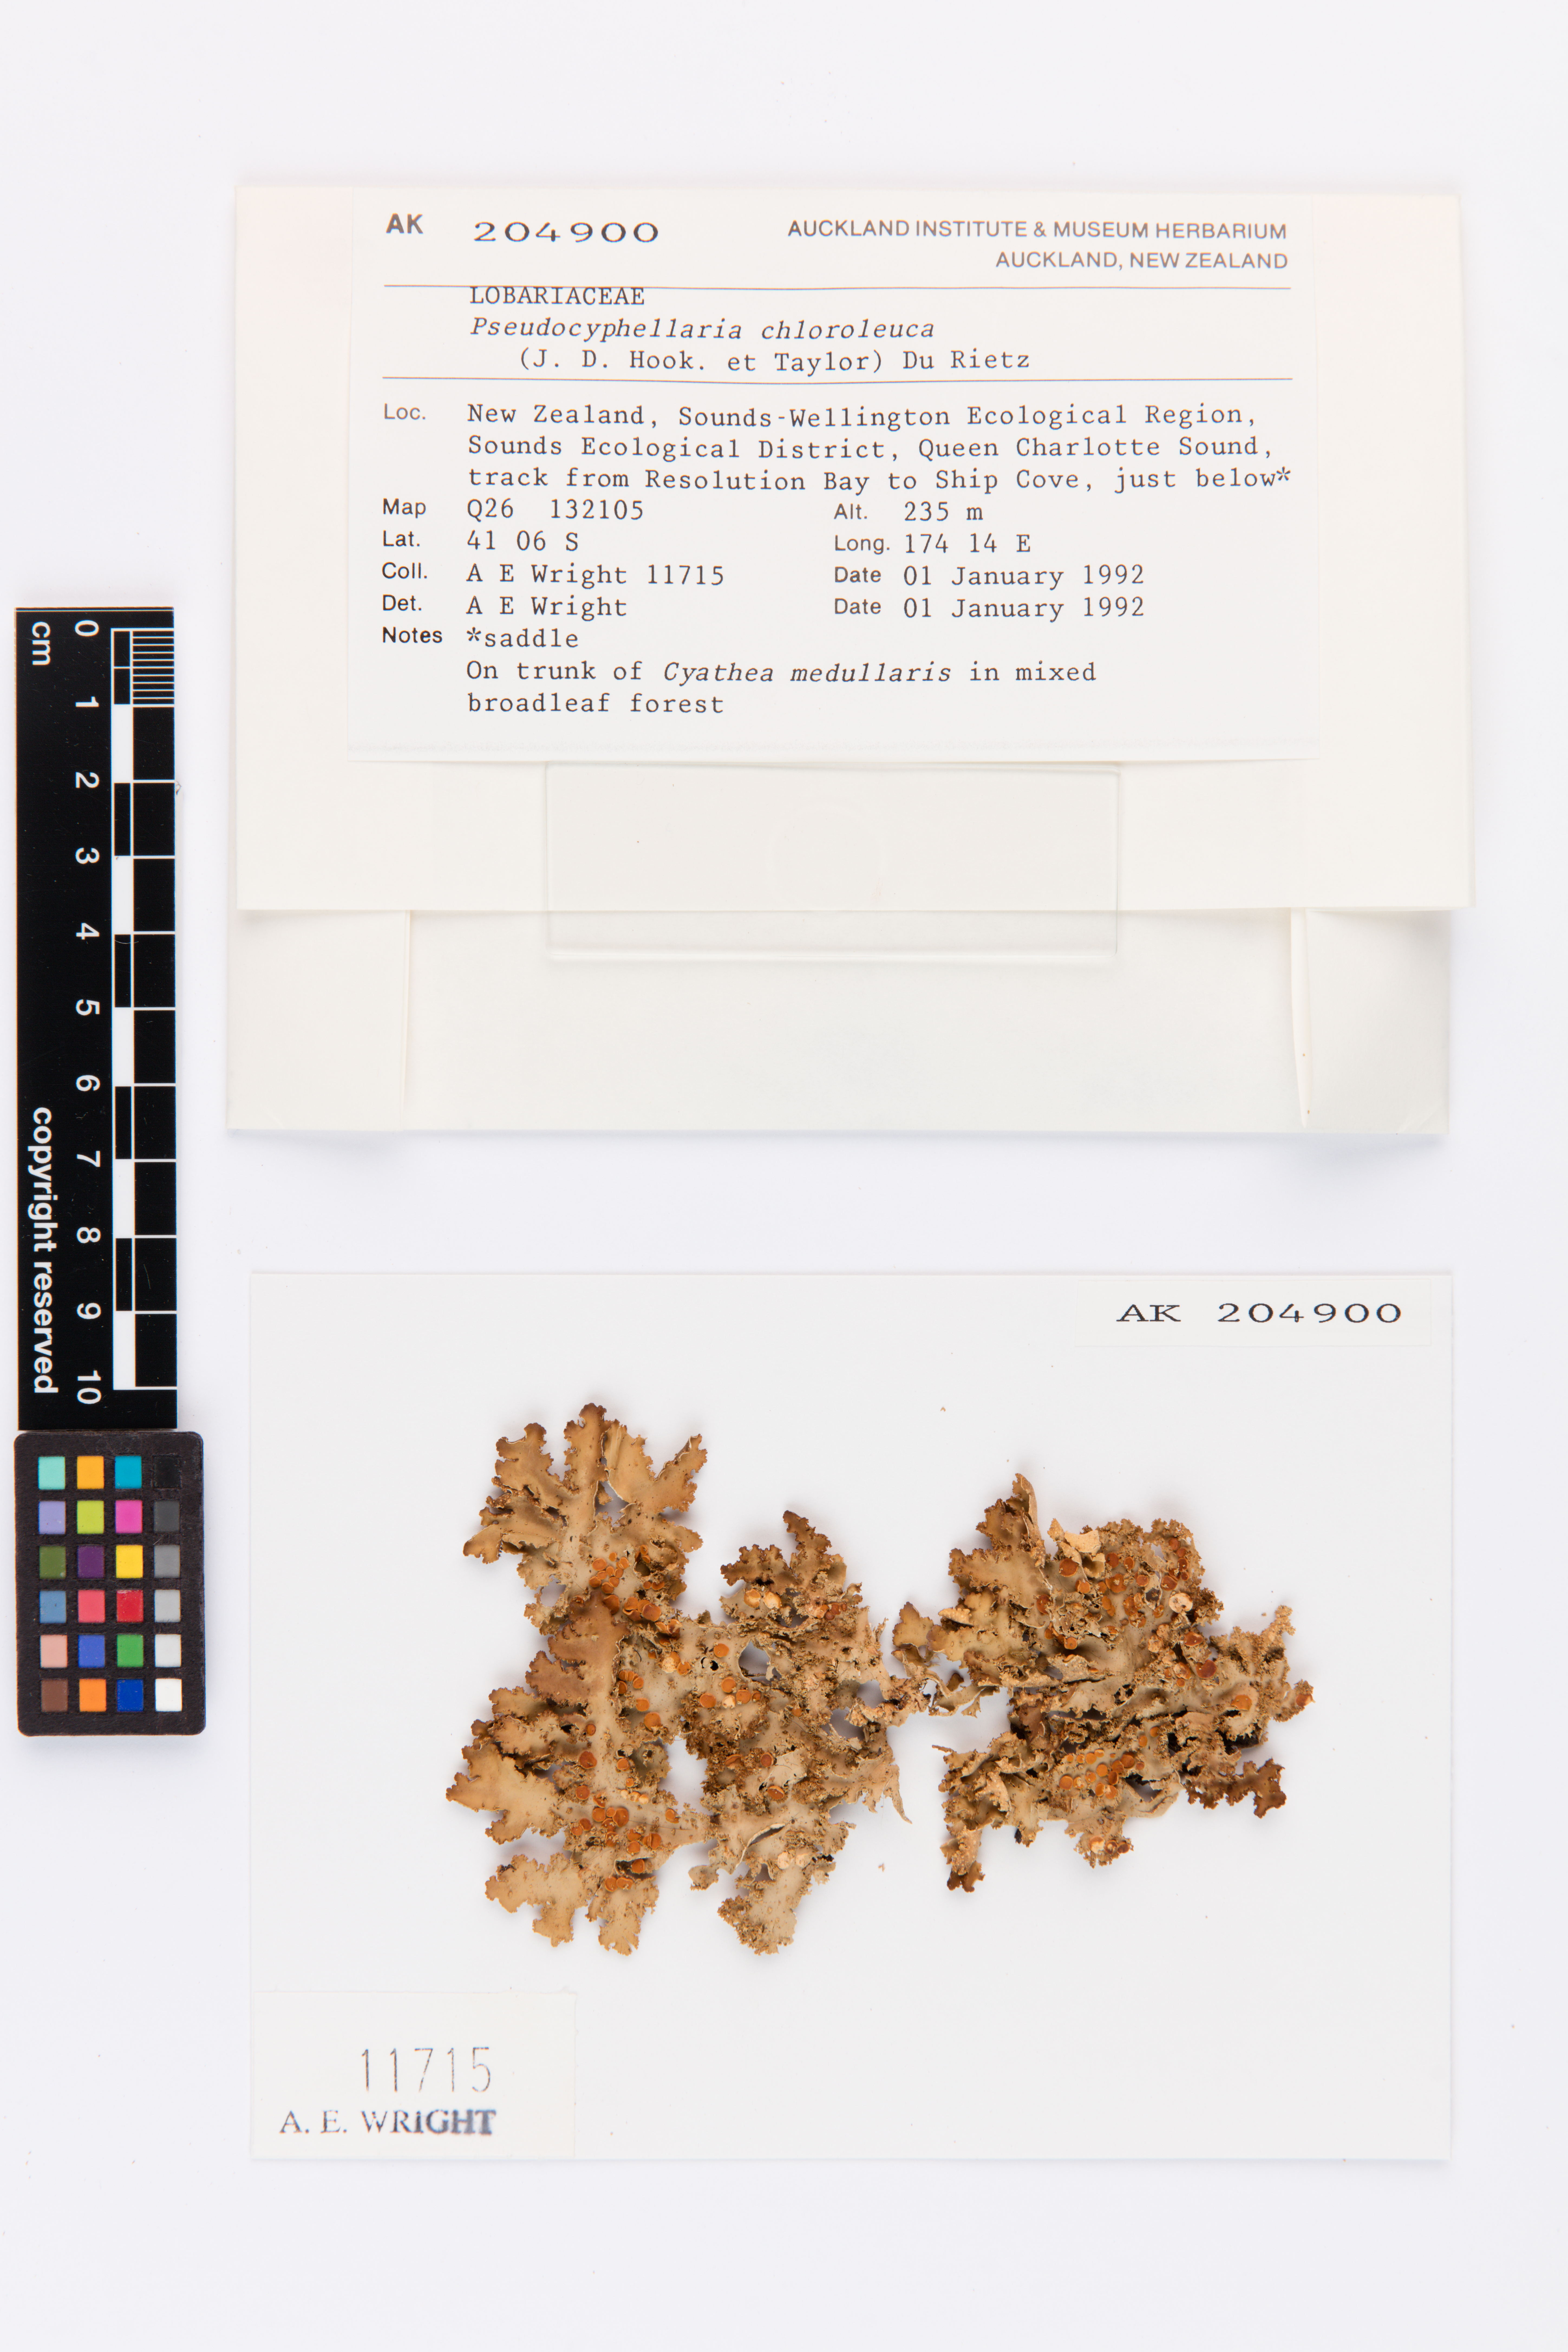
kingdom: Fungi
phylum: Ascomycota
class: Lecanoromycetes
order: Peltigerales
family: Lobariaceae
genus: Pseudocyphellaria
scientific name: Pseudocyphellaria chloroleuca
